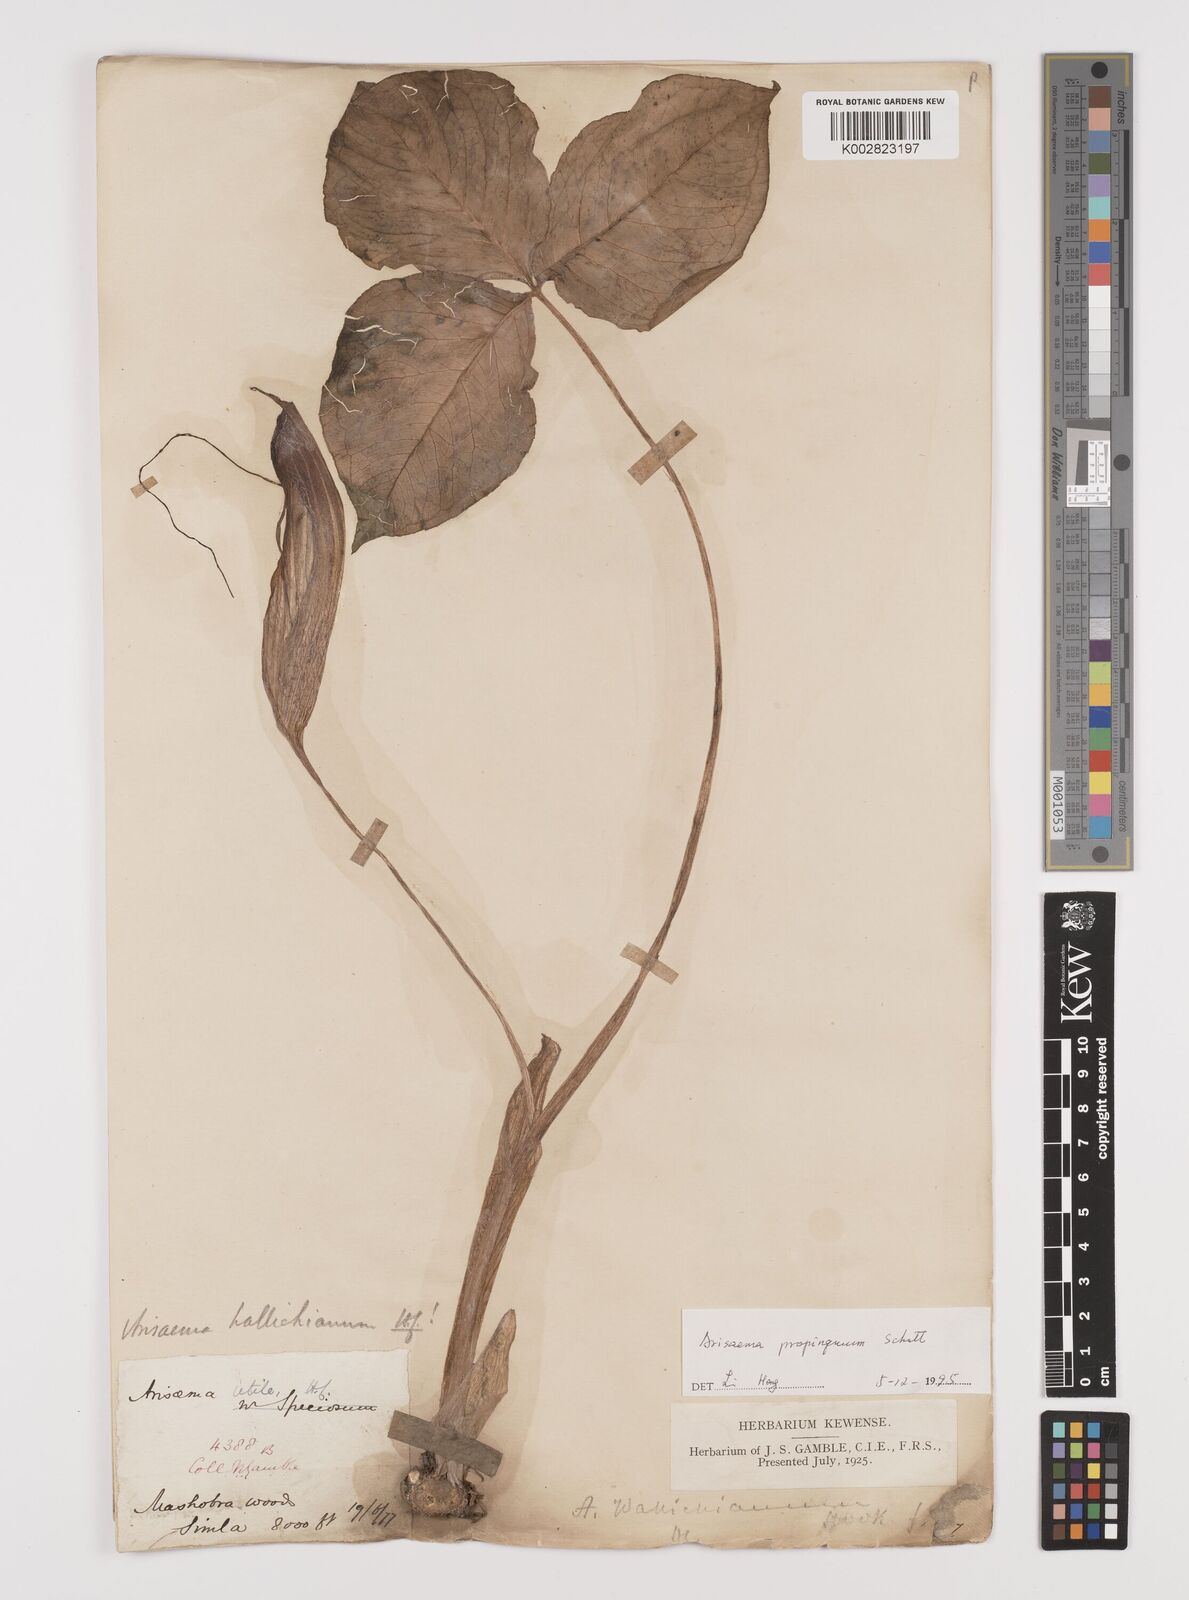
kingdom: Plantae
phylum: Tracheophyta
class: Liliopsida
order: Alismatales
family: Araceae
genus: Arisaema
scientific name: Arisaema propinquum
